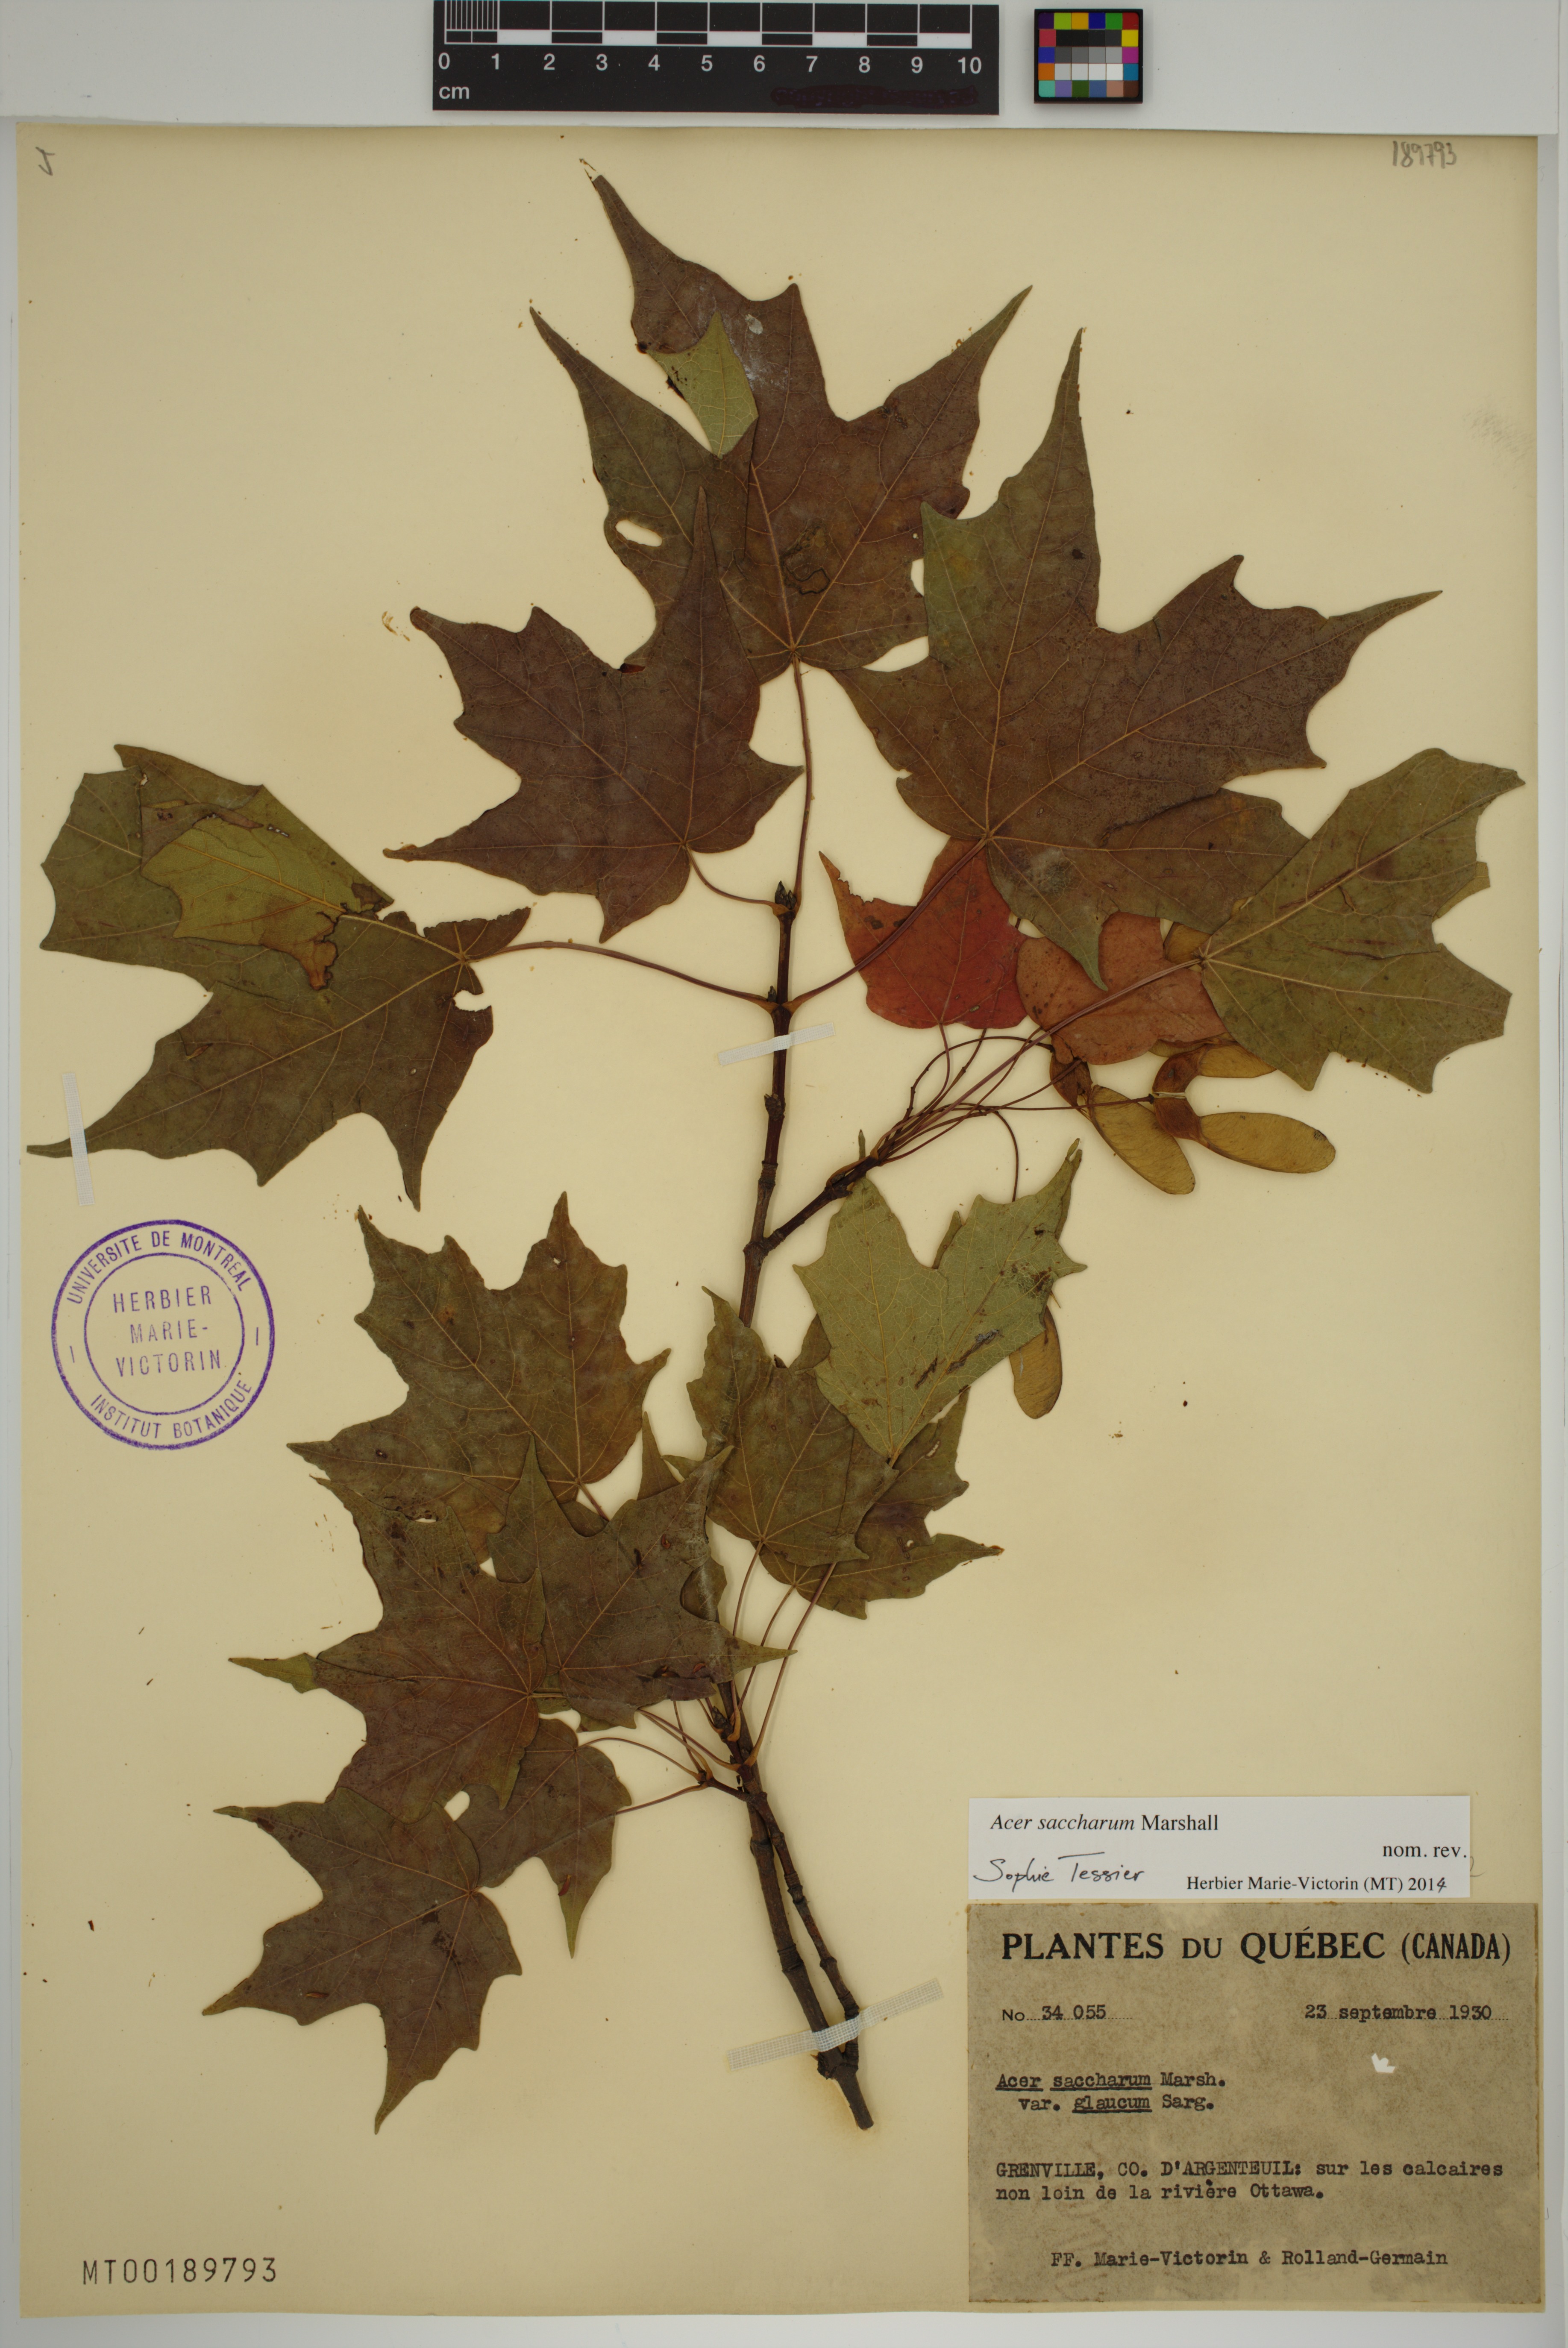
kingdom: Plantae
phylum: Tracheophyta
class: Magnoliopsida
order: Sapindales
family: Sapindaceae
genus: Acer
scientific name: Acer saccharum
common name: Sugar maple
